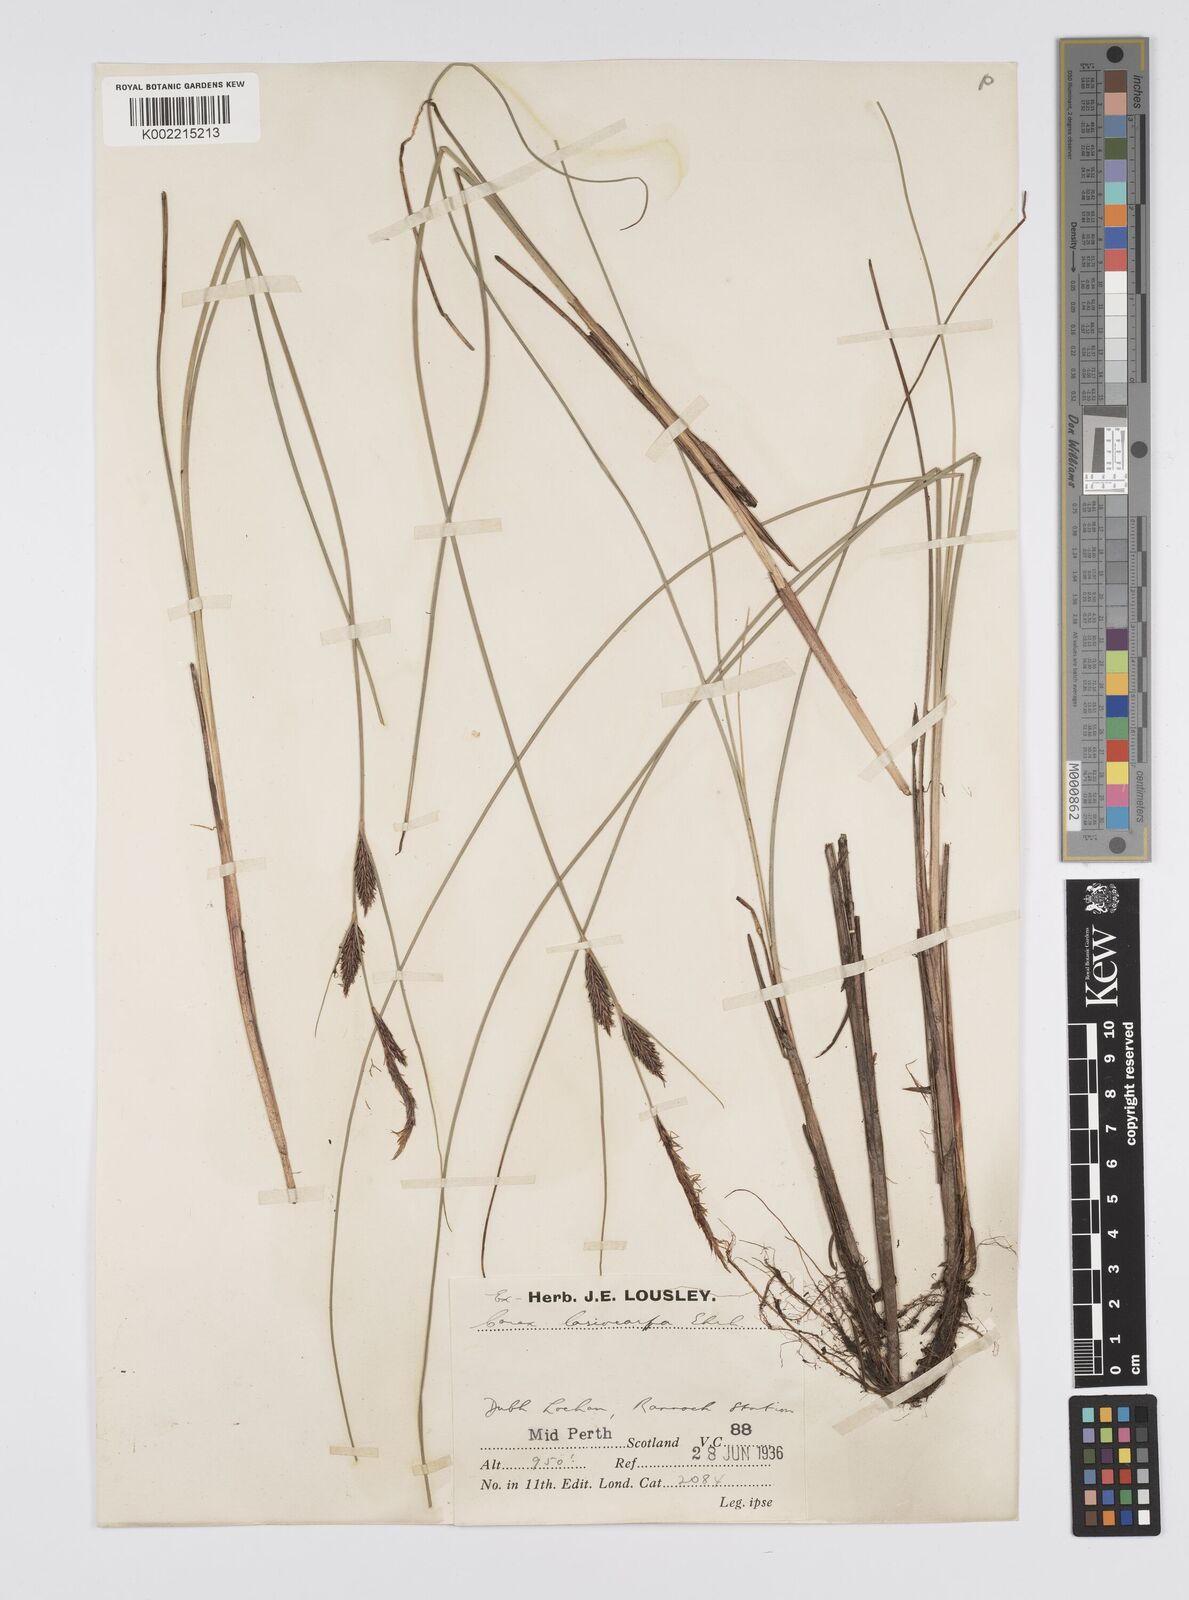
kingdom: Plantae
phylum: Tracheophyta
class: Liliopsida
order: Poales
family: Cyperaceae
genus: Carex
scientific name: Carex lasiocarpa
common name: Slender sedge
